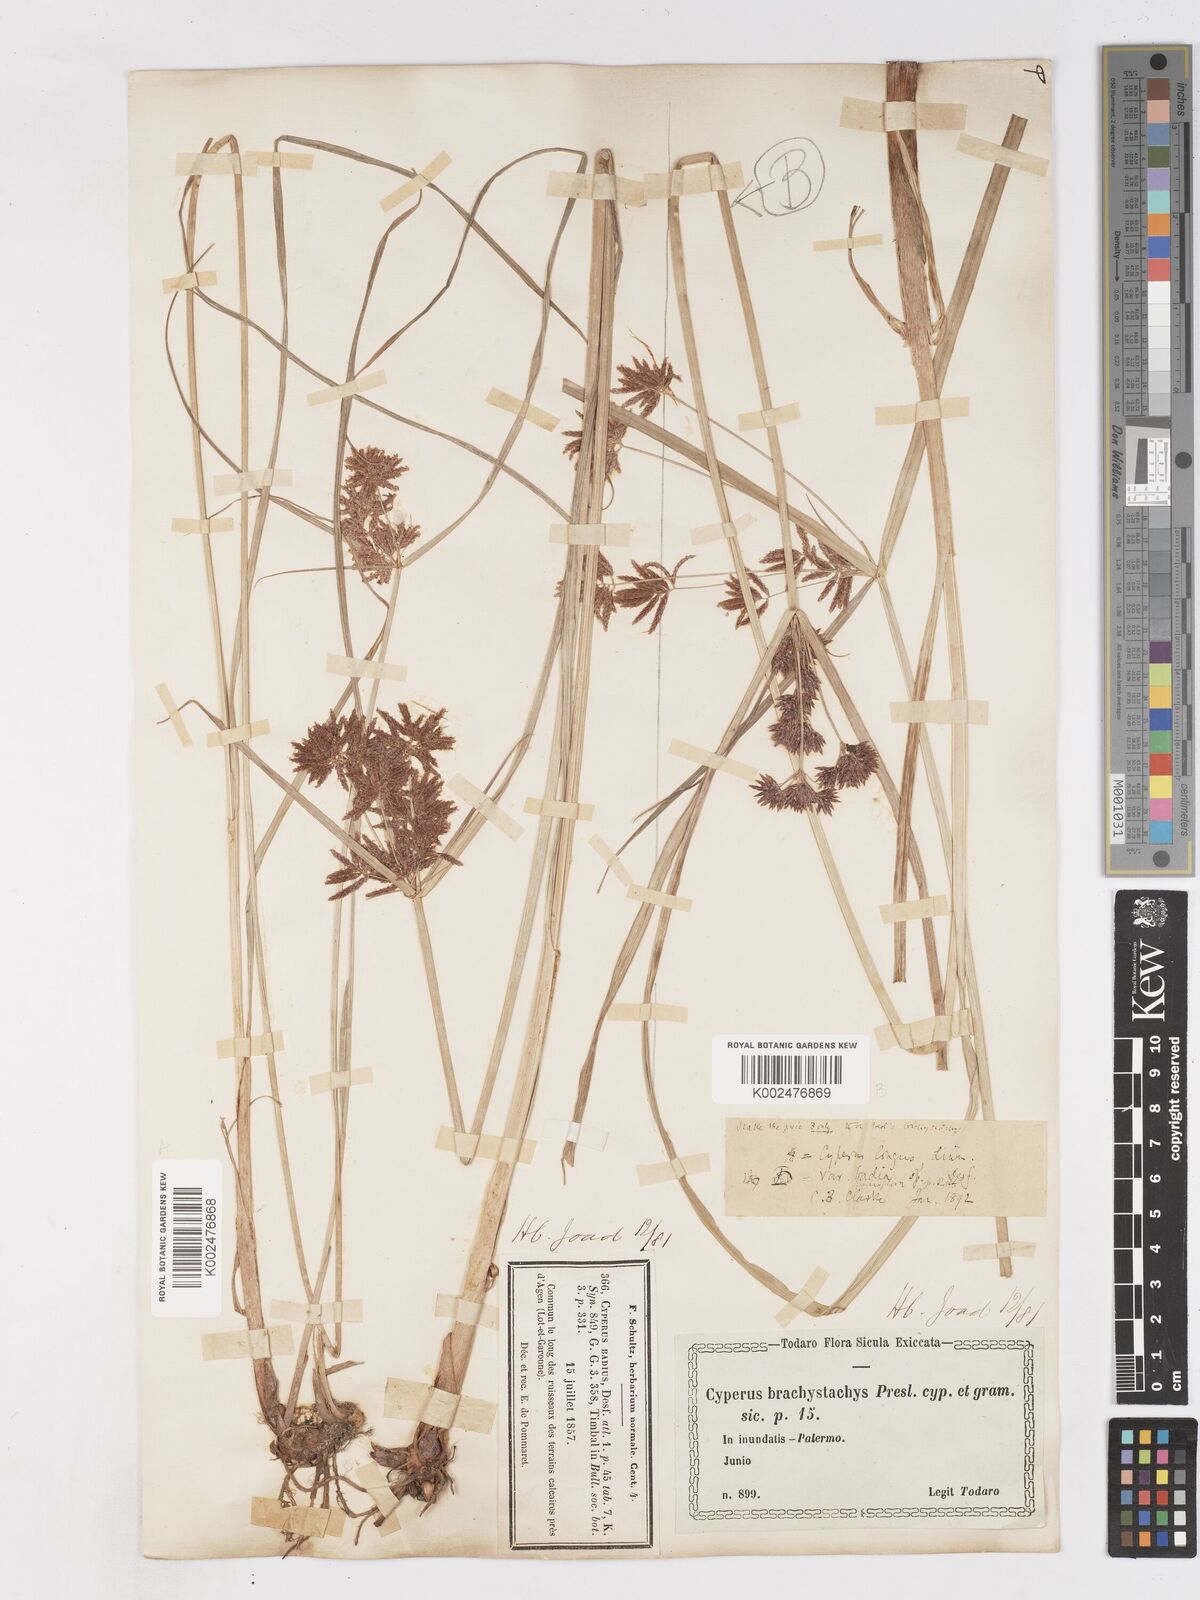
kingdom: Plantae
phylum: Tracheophyta
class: Liliopsida
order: Poales
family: Cyperaceae
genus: Cyperus
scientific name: Cyperus longus
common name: Galingale
